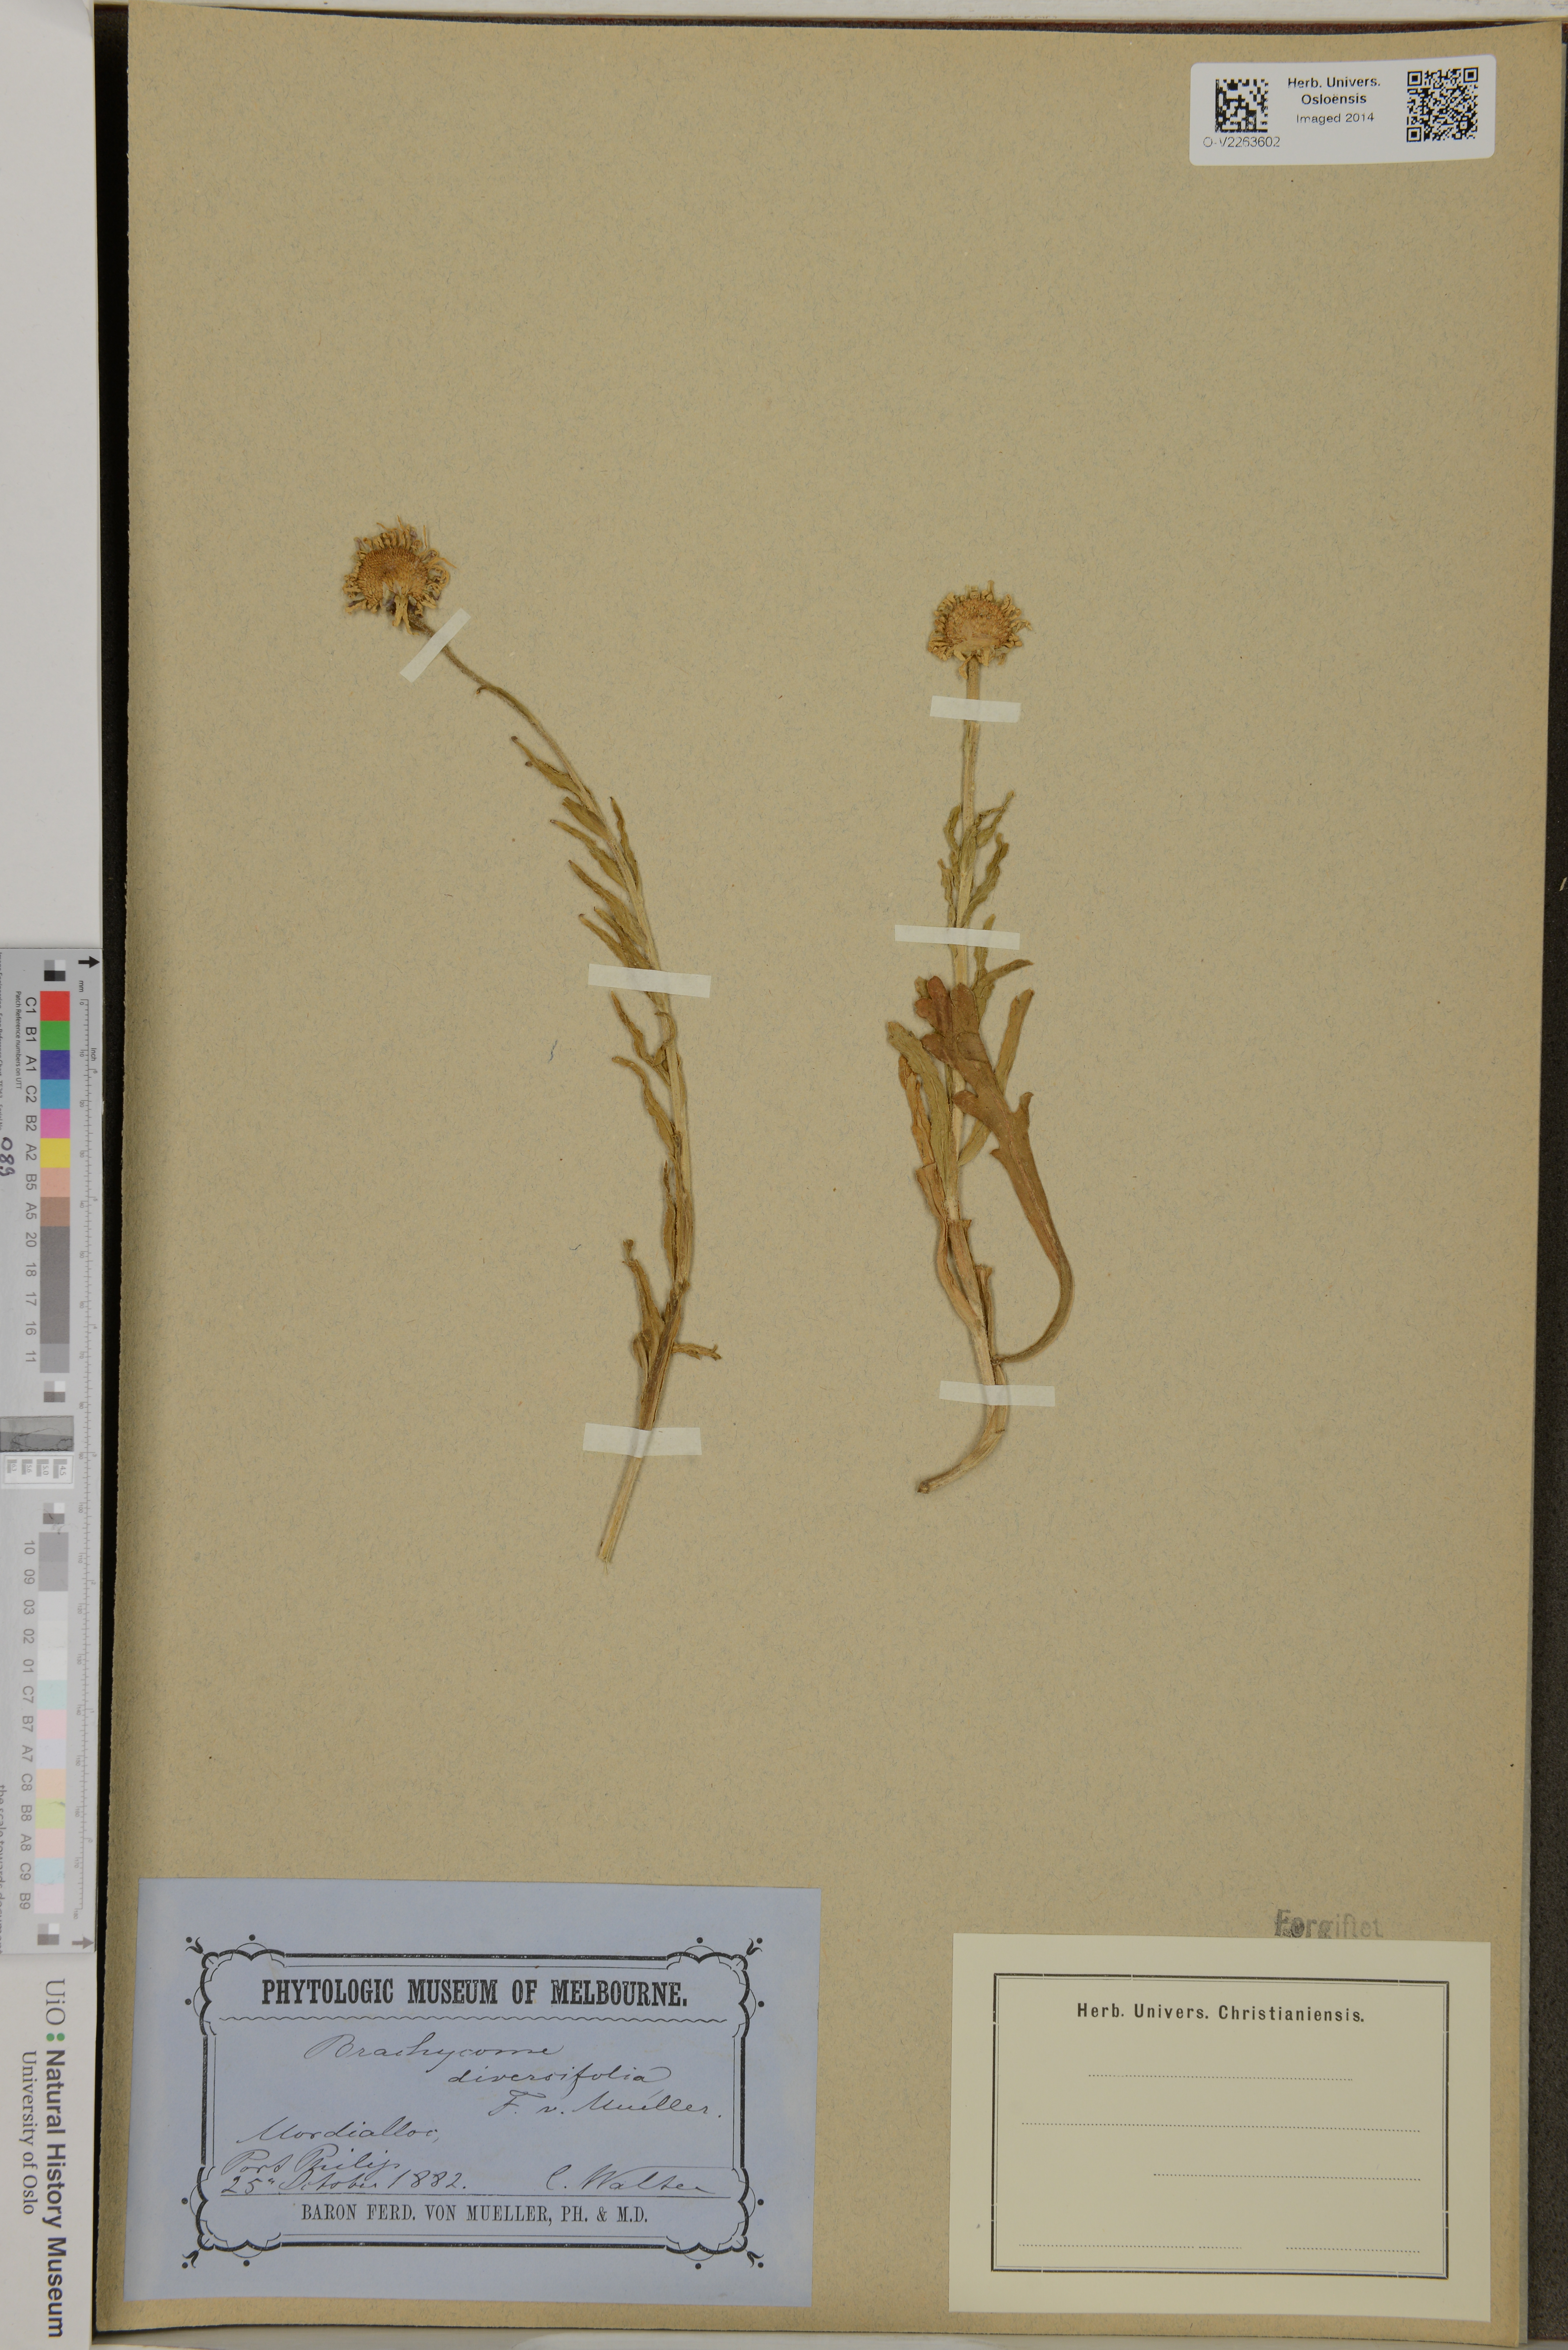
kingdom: Plantae
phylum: Tracheophyta
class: Magnoliopsida
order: Asterales
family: Asteraceae
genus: Brachyscome
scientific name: Brachyscome diversifolia
